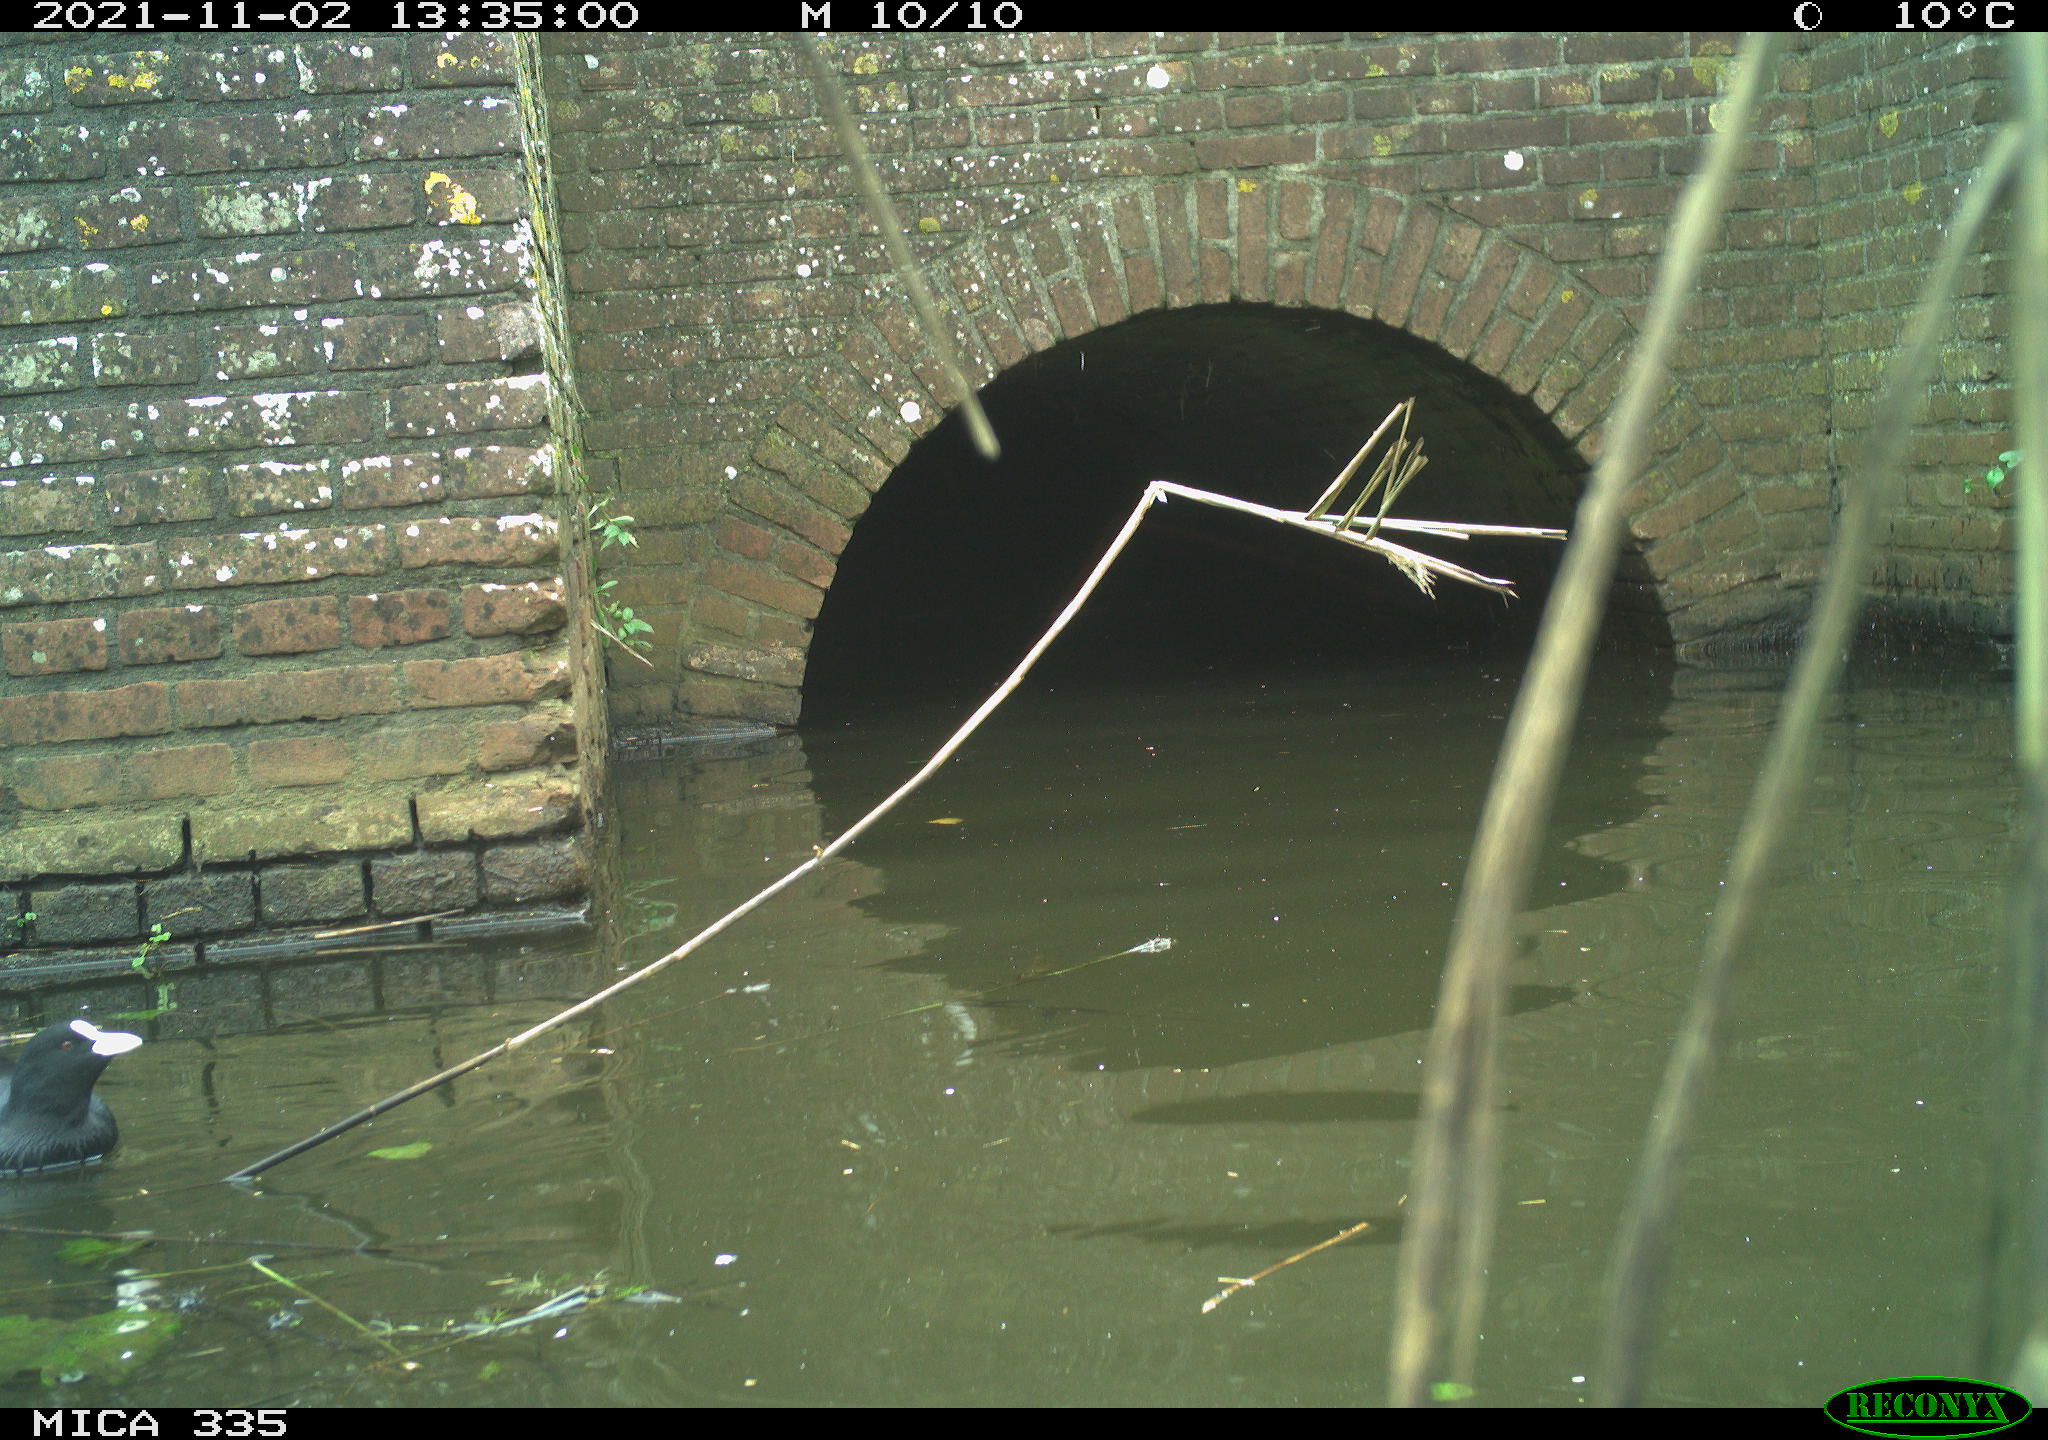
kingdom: Animalia
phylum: Chordata
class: Aves
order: Gruiformes
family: Rallidae
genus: Fulica
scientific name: Fulica atra
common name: Eurasian coot
